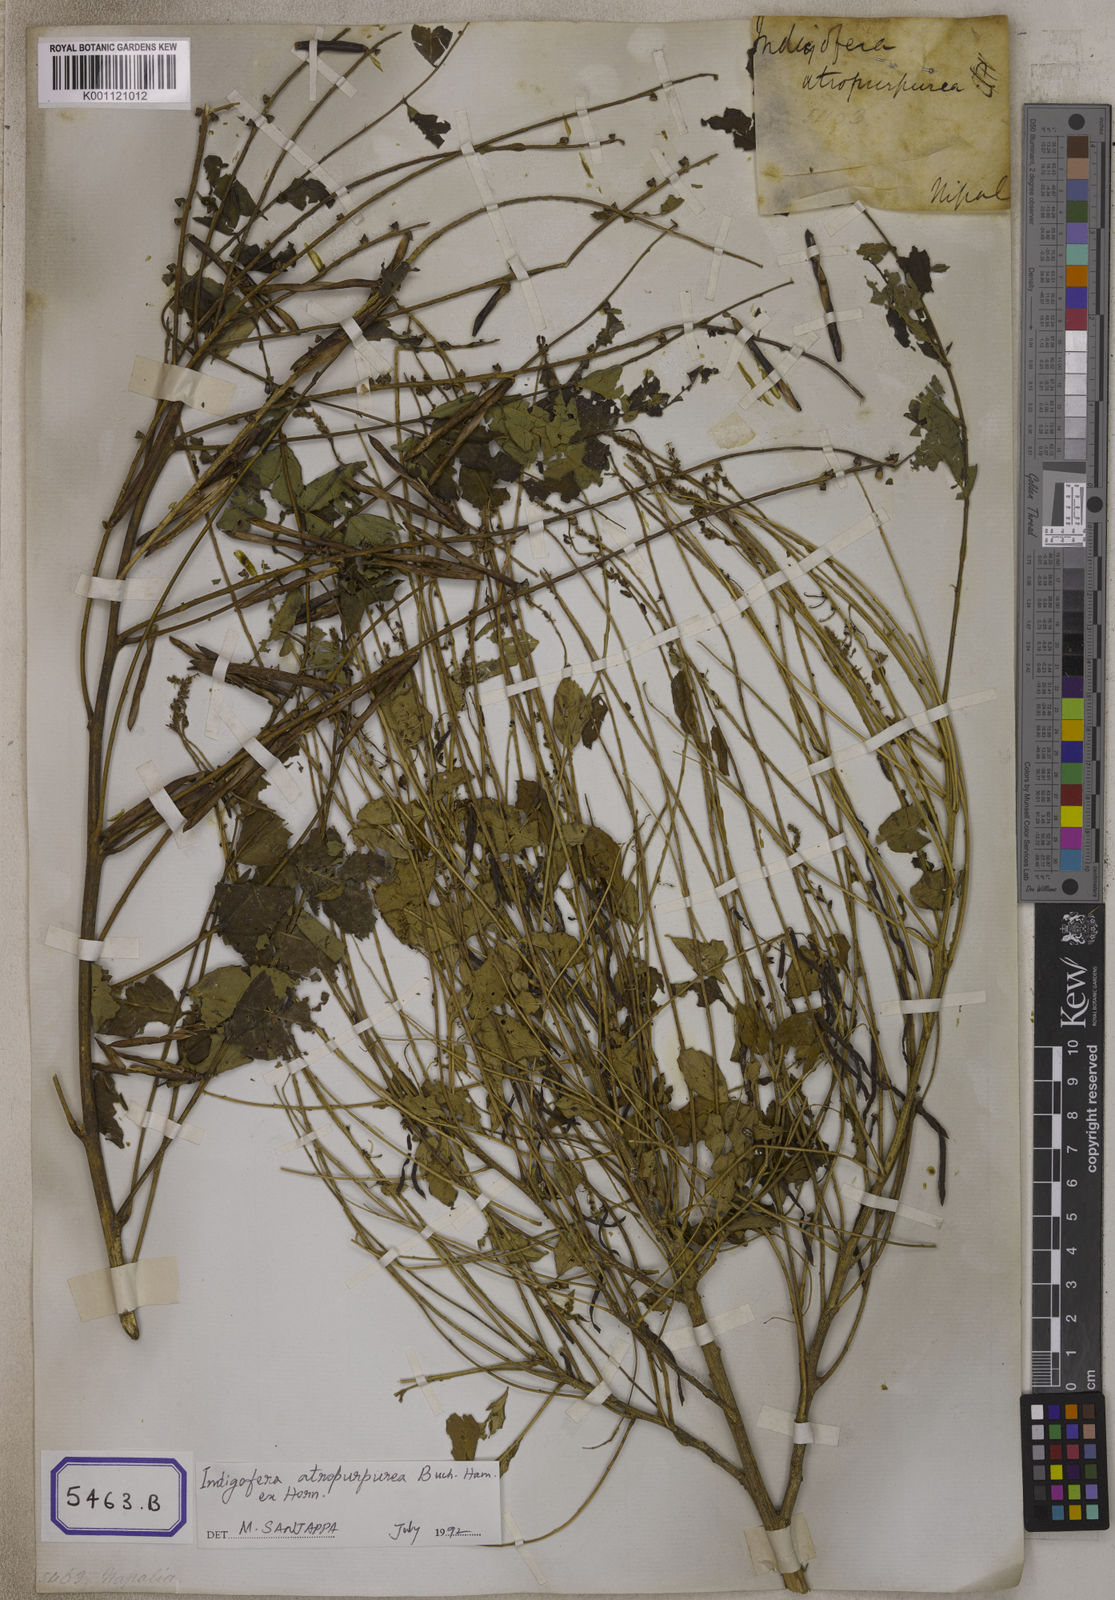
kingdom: Plantae
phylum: Tracheophyta
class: Magnoliopsida
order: Fabales
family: Fabaceae
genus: Indigofera
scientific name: Indigofera
